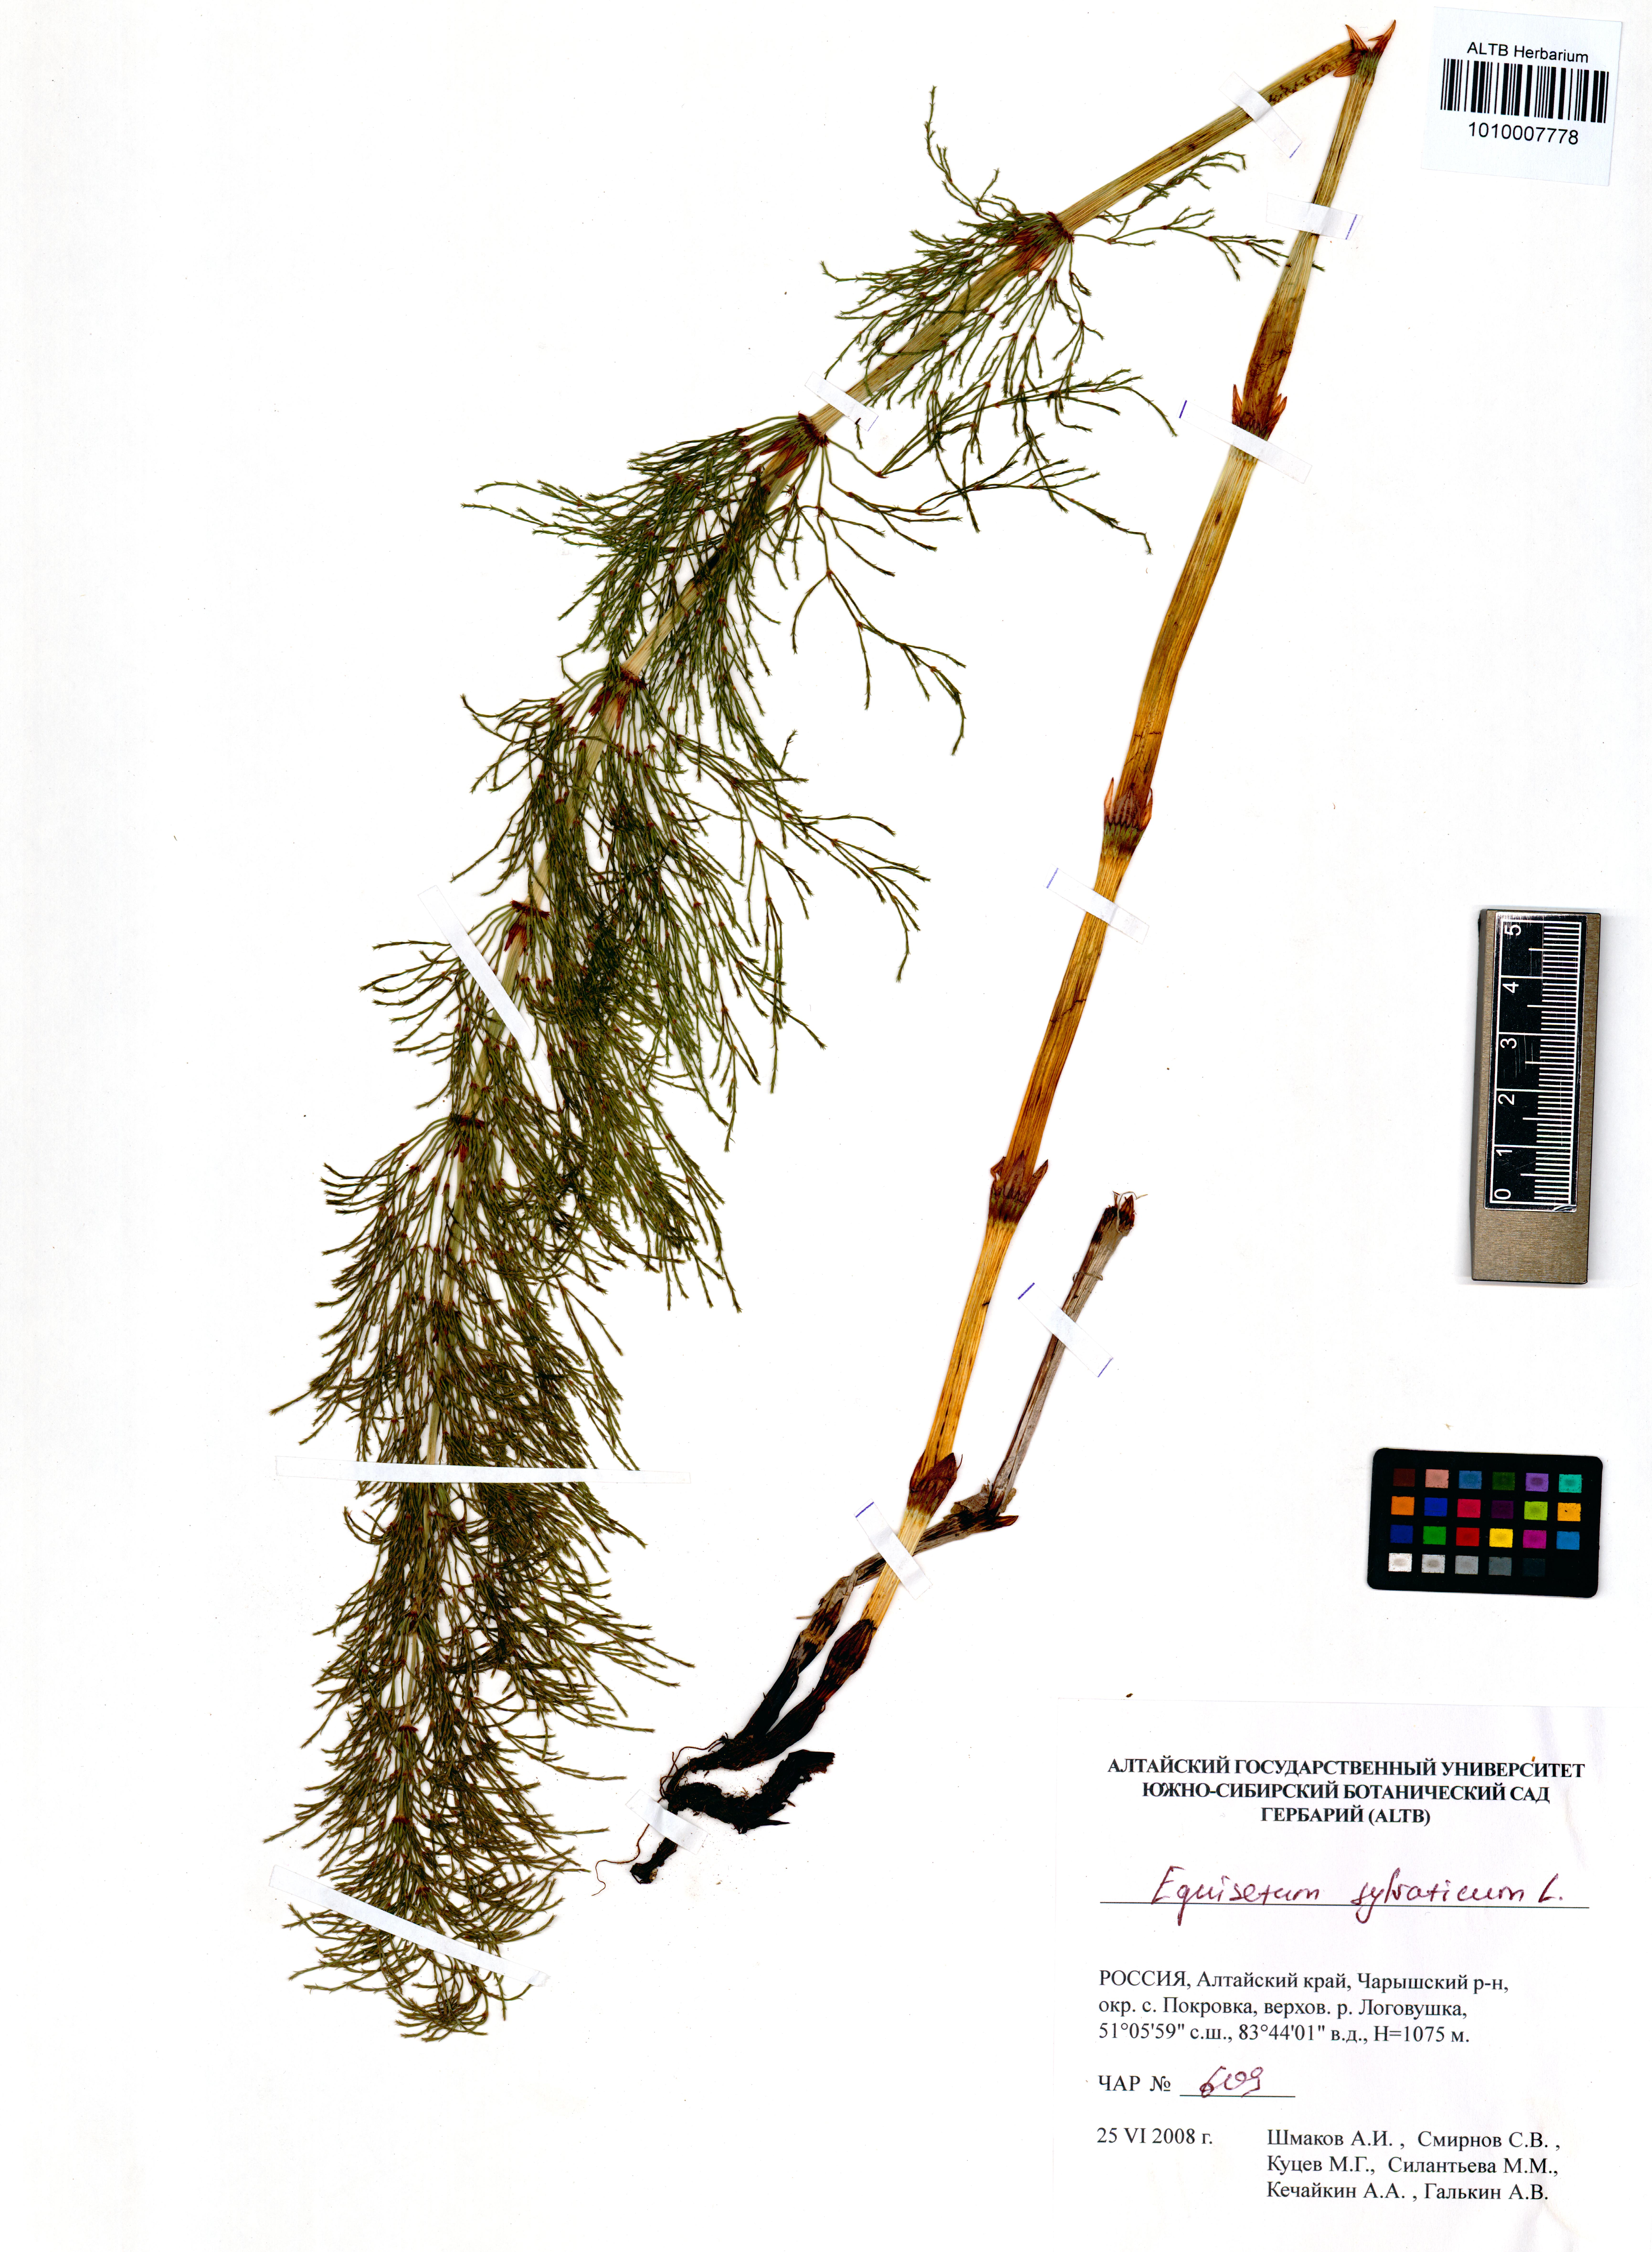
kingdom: Plantae
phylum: Tracheophyta
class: Polypodiopsida
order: Equisetales
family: Equisetaceae
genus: Equisetum
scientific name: Equisetum sylvaticum
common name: Wood horsetail
